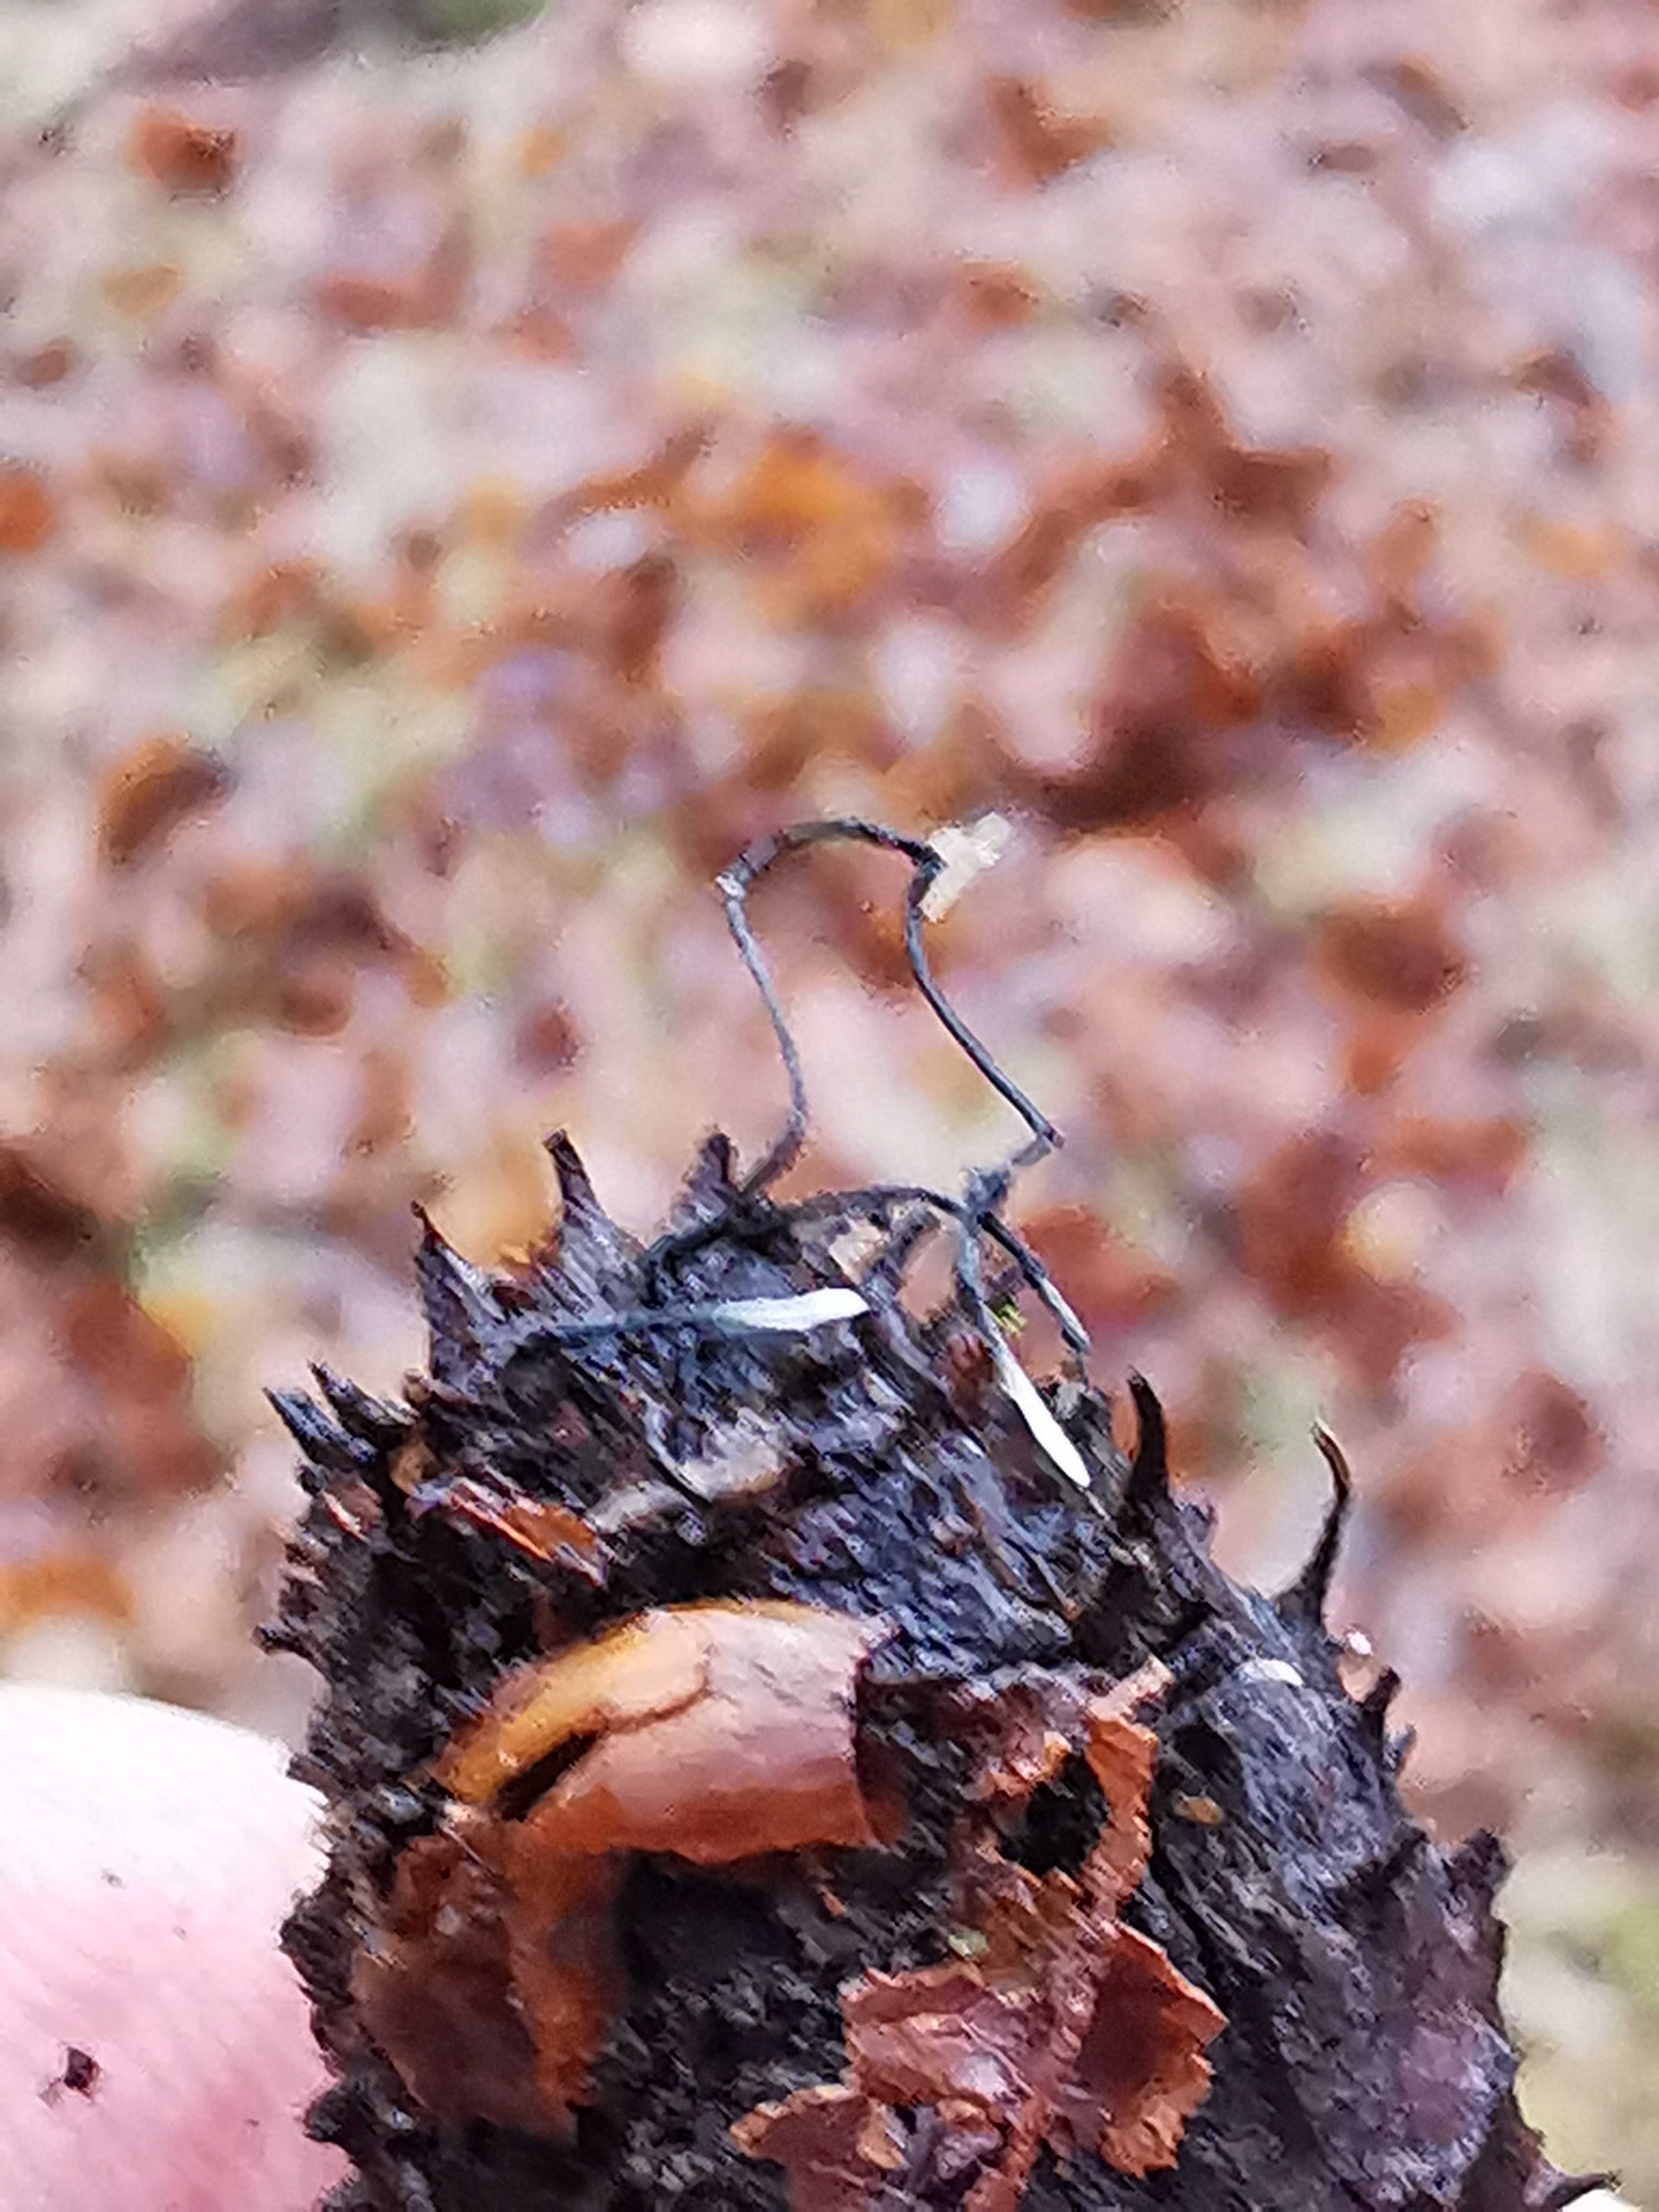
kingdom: Fungi
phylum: Ascomycota
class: Sordariomycetes
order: Xylariales
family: Xylariaceae
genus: Xylaria
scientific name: Xylaria carpophila
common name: bogskål-stødsvamp
